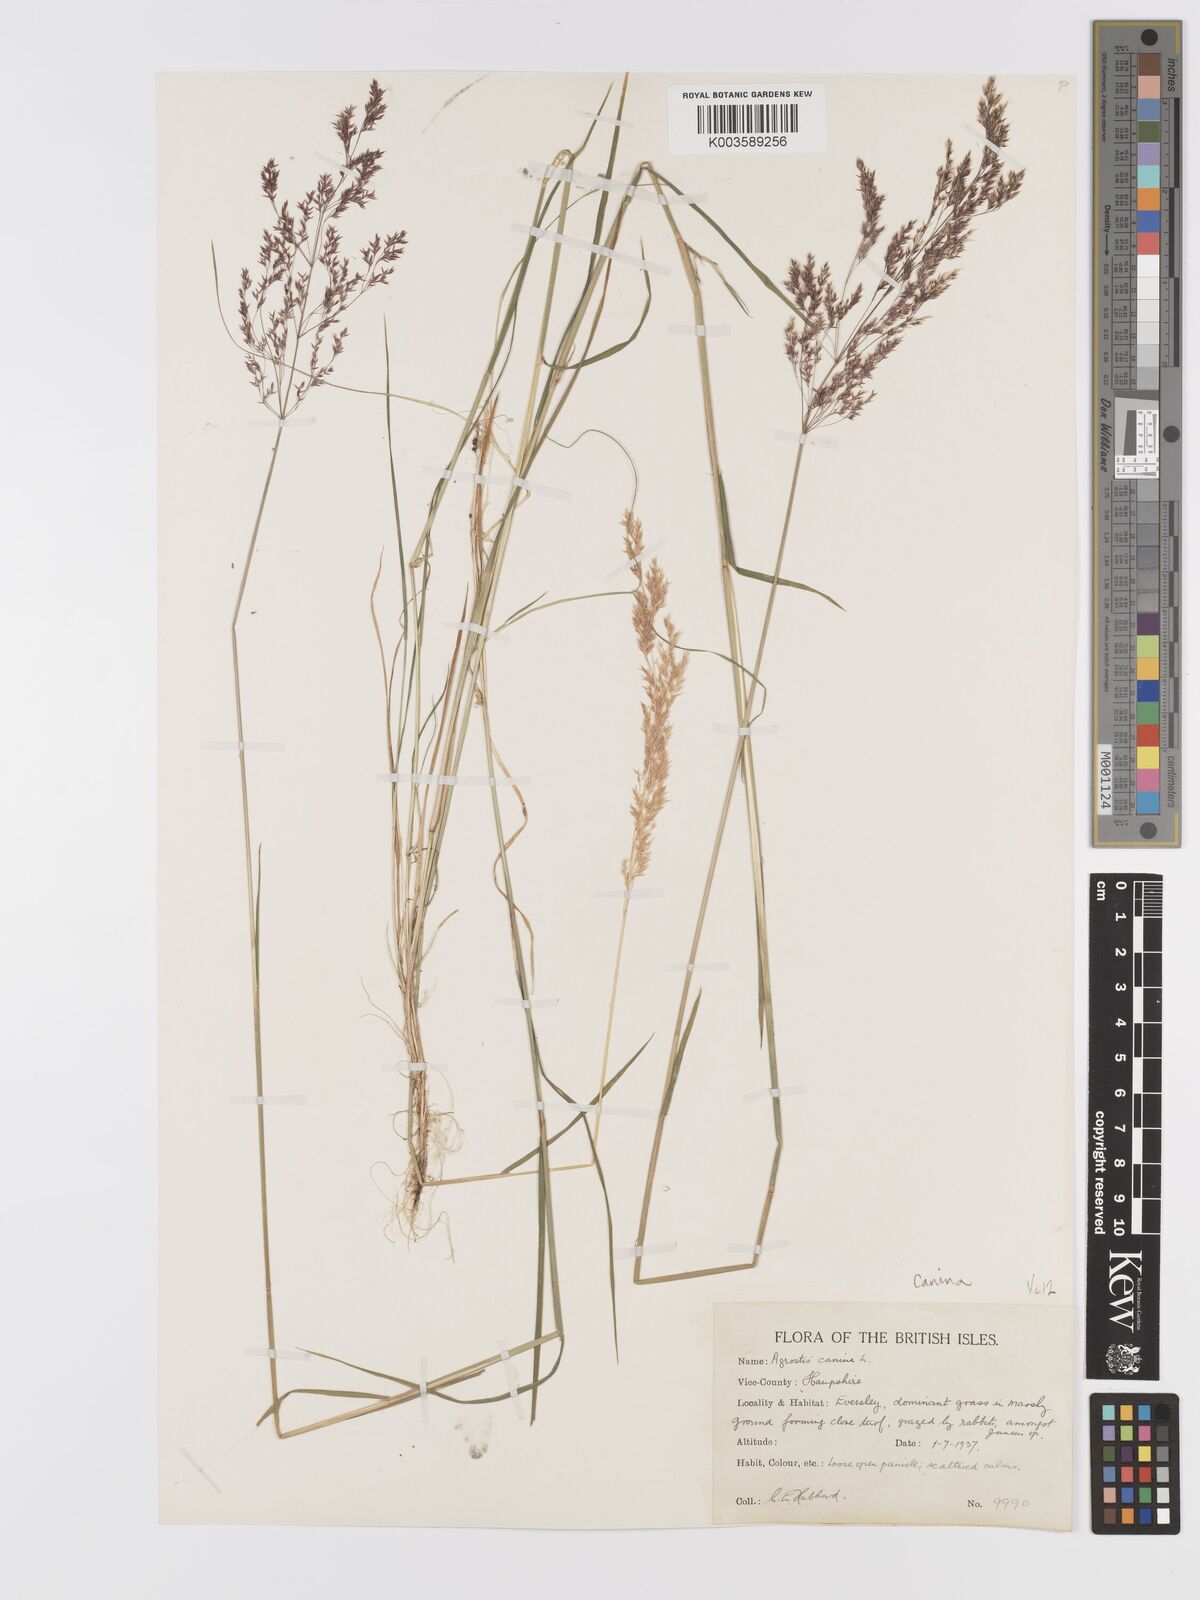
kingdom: Plantae
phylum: Tracheophyta
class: Liliopsida
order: Poales
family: Poaceae
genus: Agrostis
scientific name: Agrostis canina
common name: Velvet bent
